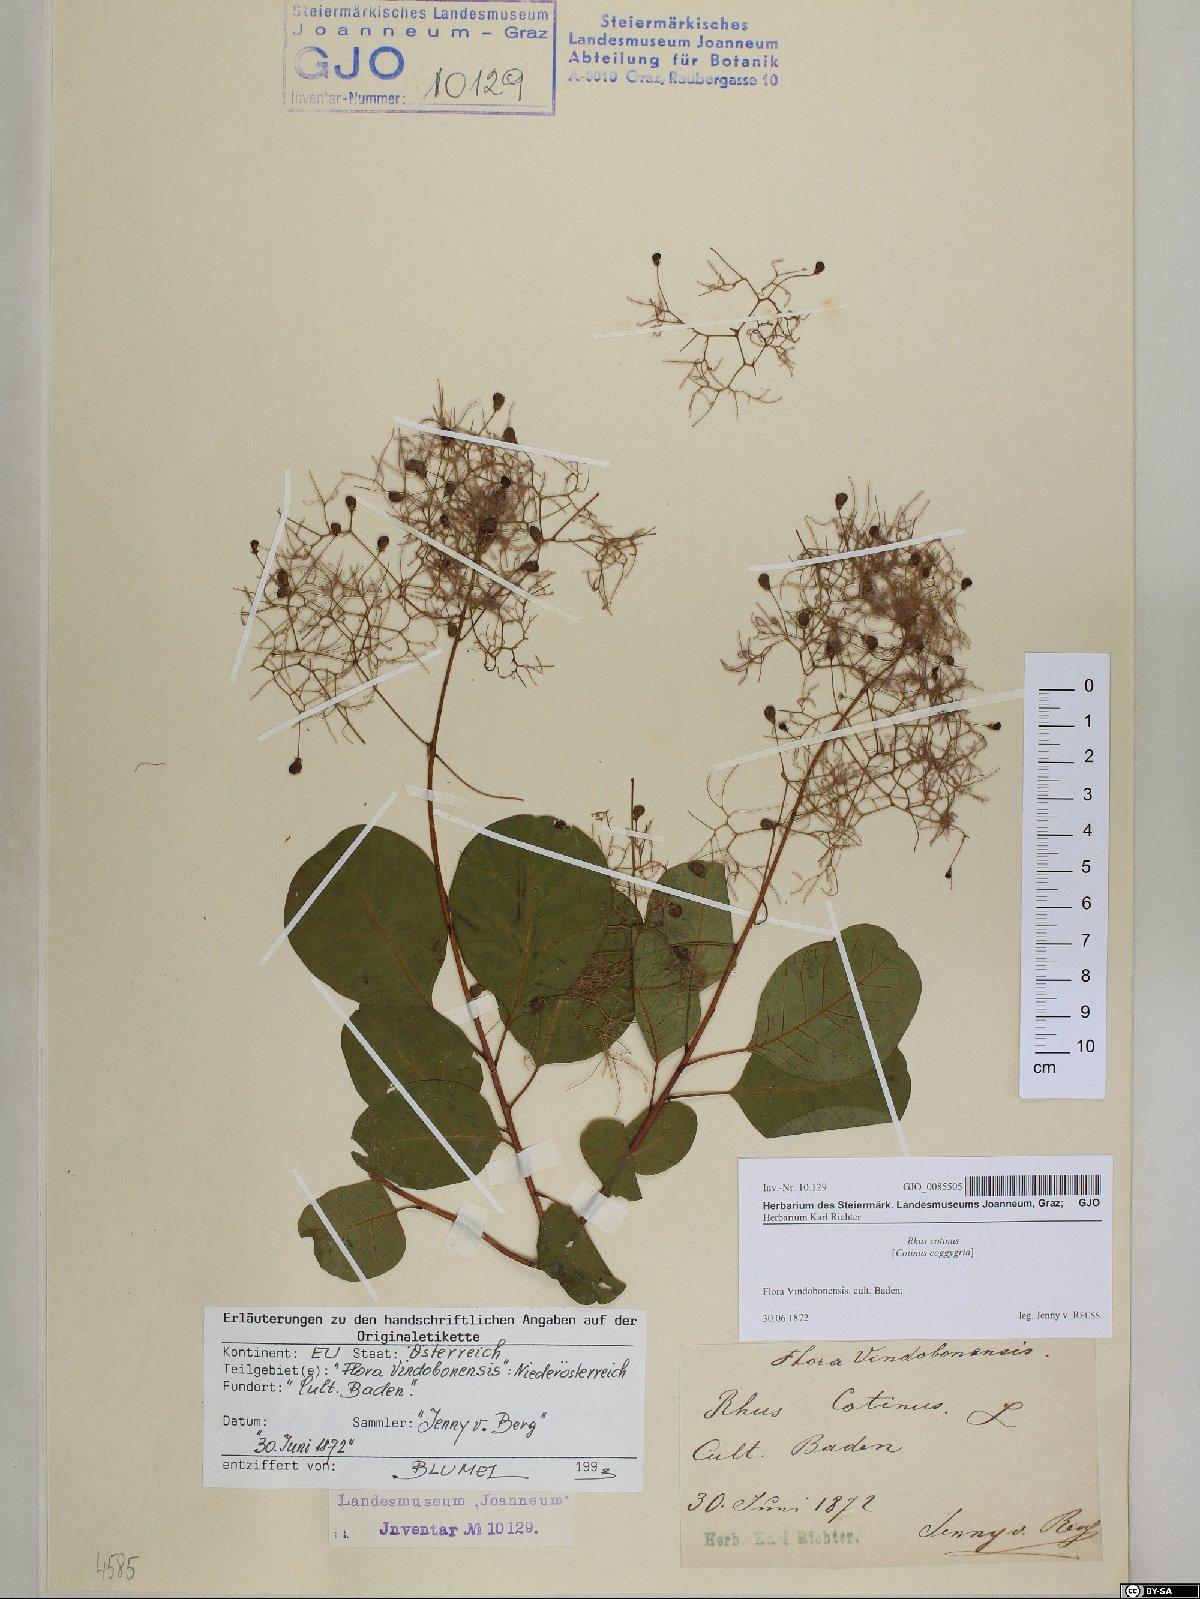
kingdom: Plantae
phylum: Tracheophyta
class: Magnoliopsida
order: Sapindales
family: Anacardiaceae
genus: Cotinus
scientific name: Cotinus coggygria
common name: Smoke-tree
